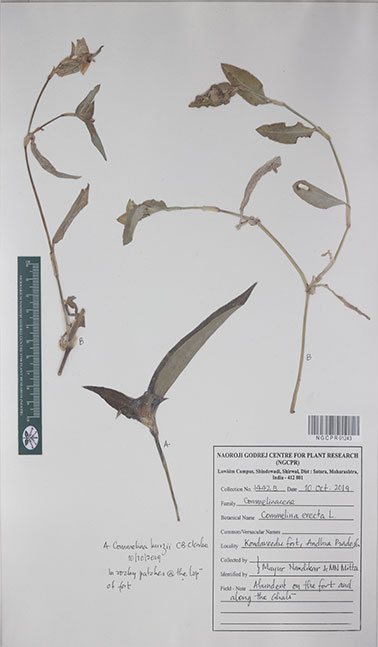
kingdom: Plantae
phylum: Tracheophyta
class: Liliopsida
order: Commelinales
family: Commelinaceae
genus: Commelina
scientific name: Commelina undulata
